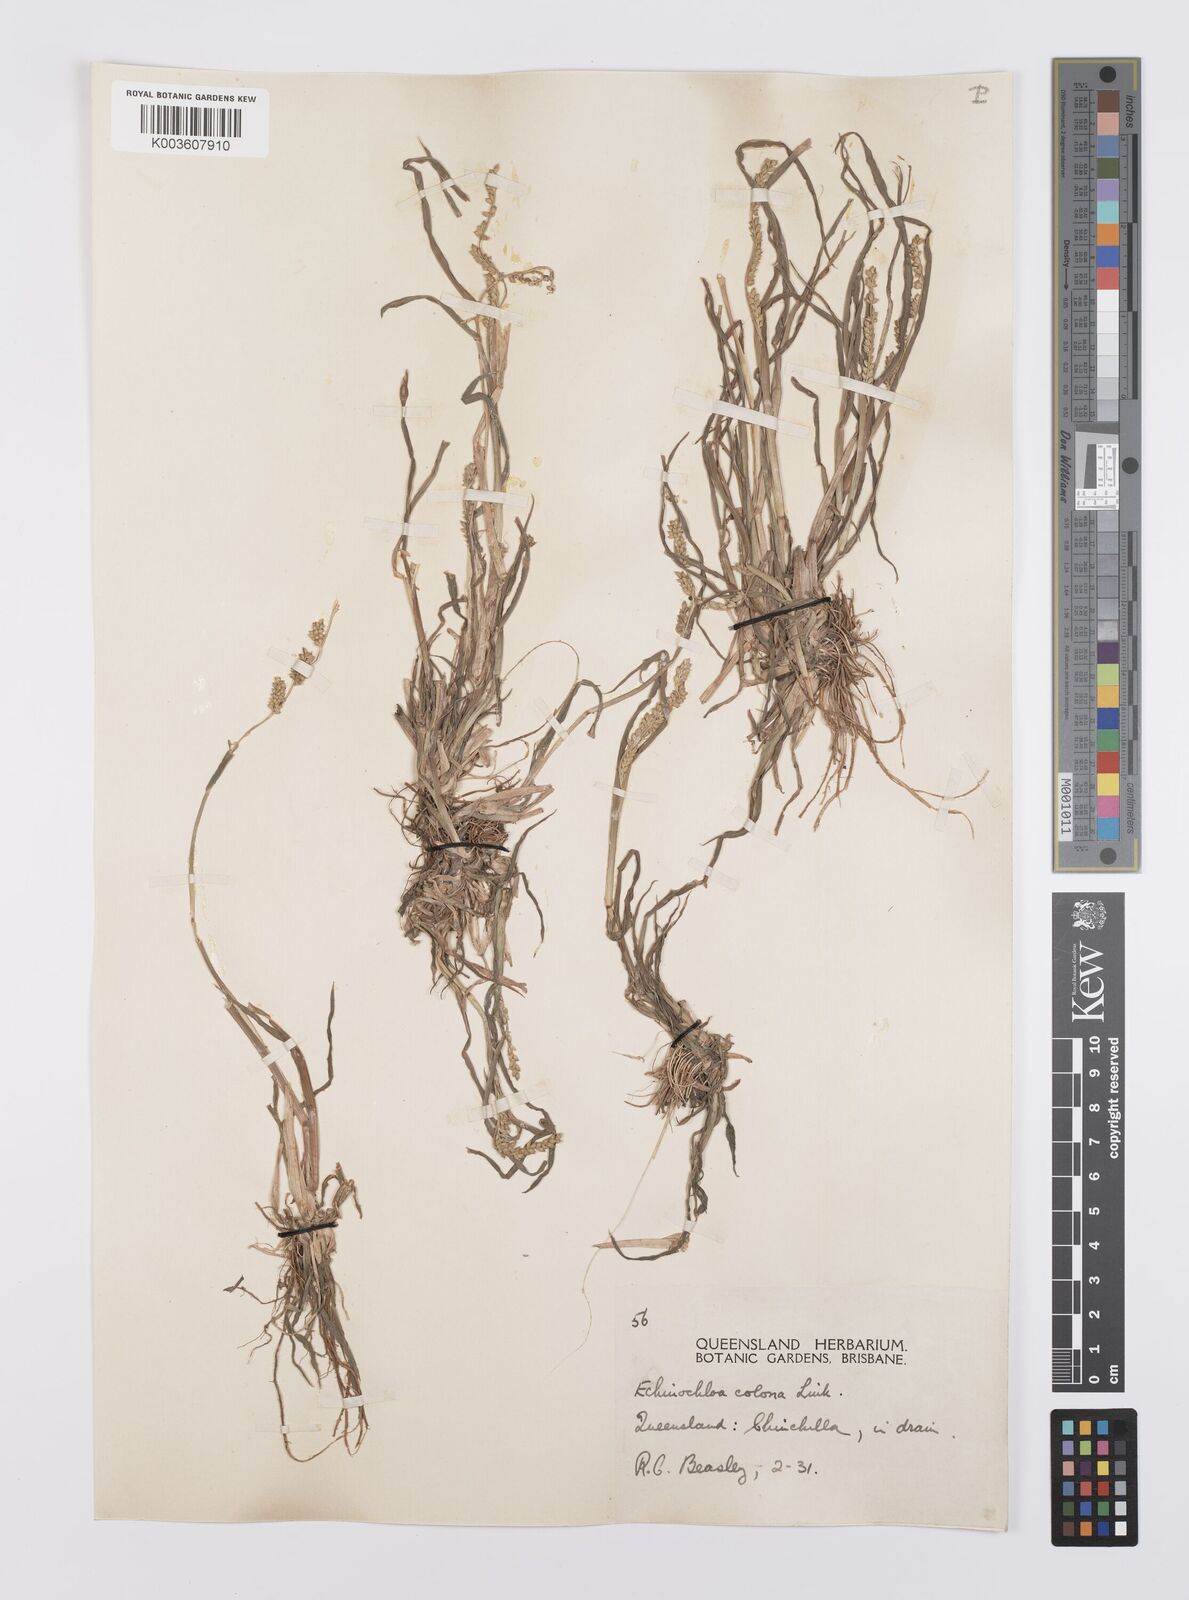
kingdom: Plantae
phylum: Tracheophyta
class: Liliopsida
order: Poales
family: Poaceae
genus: Echinochloa
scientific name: Echinochloa colonum
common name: Jungle rice
